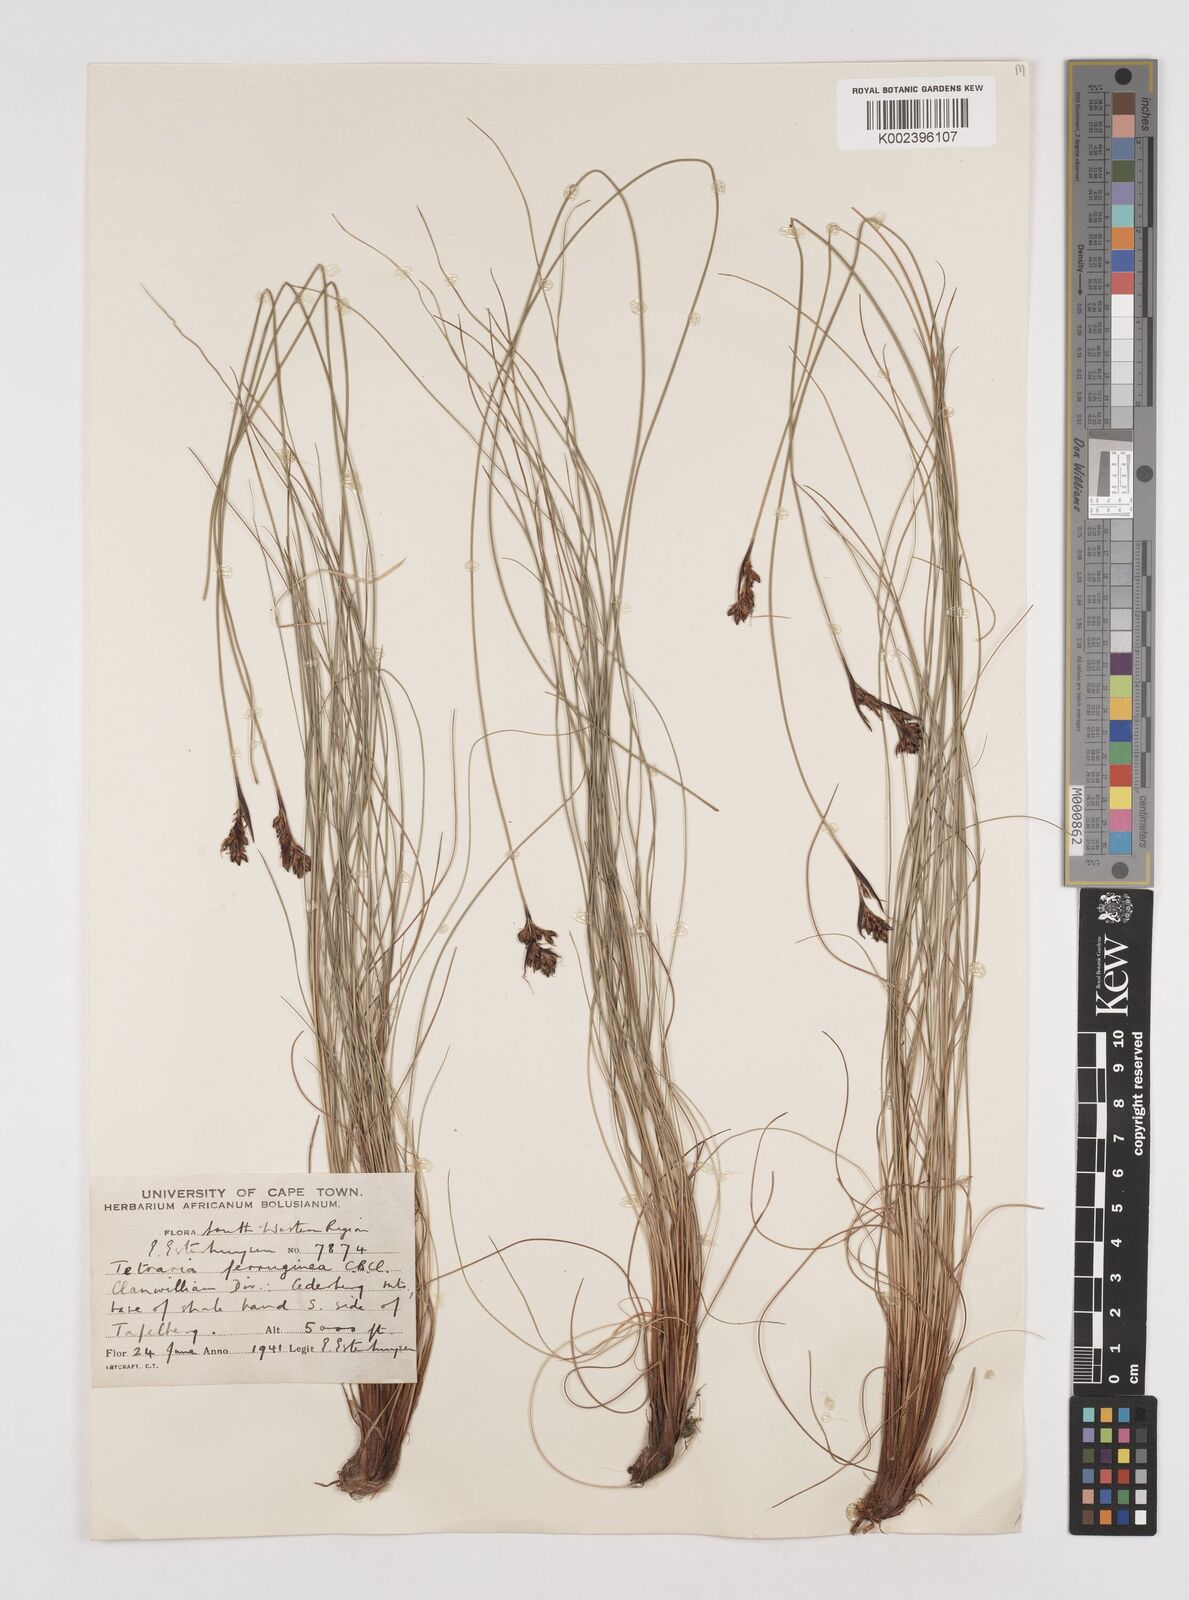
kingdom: Plantae
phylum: Tracheophyta
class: Liliopsida
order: Poales
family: Cyperaceae
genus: Tetraria
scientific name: Tetraria ferruginea
